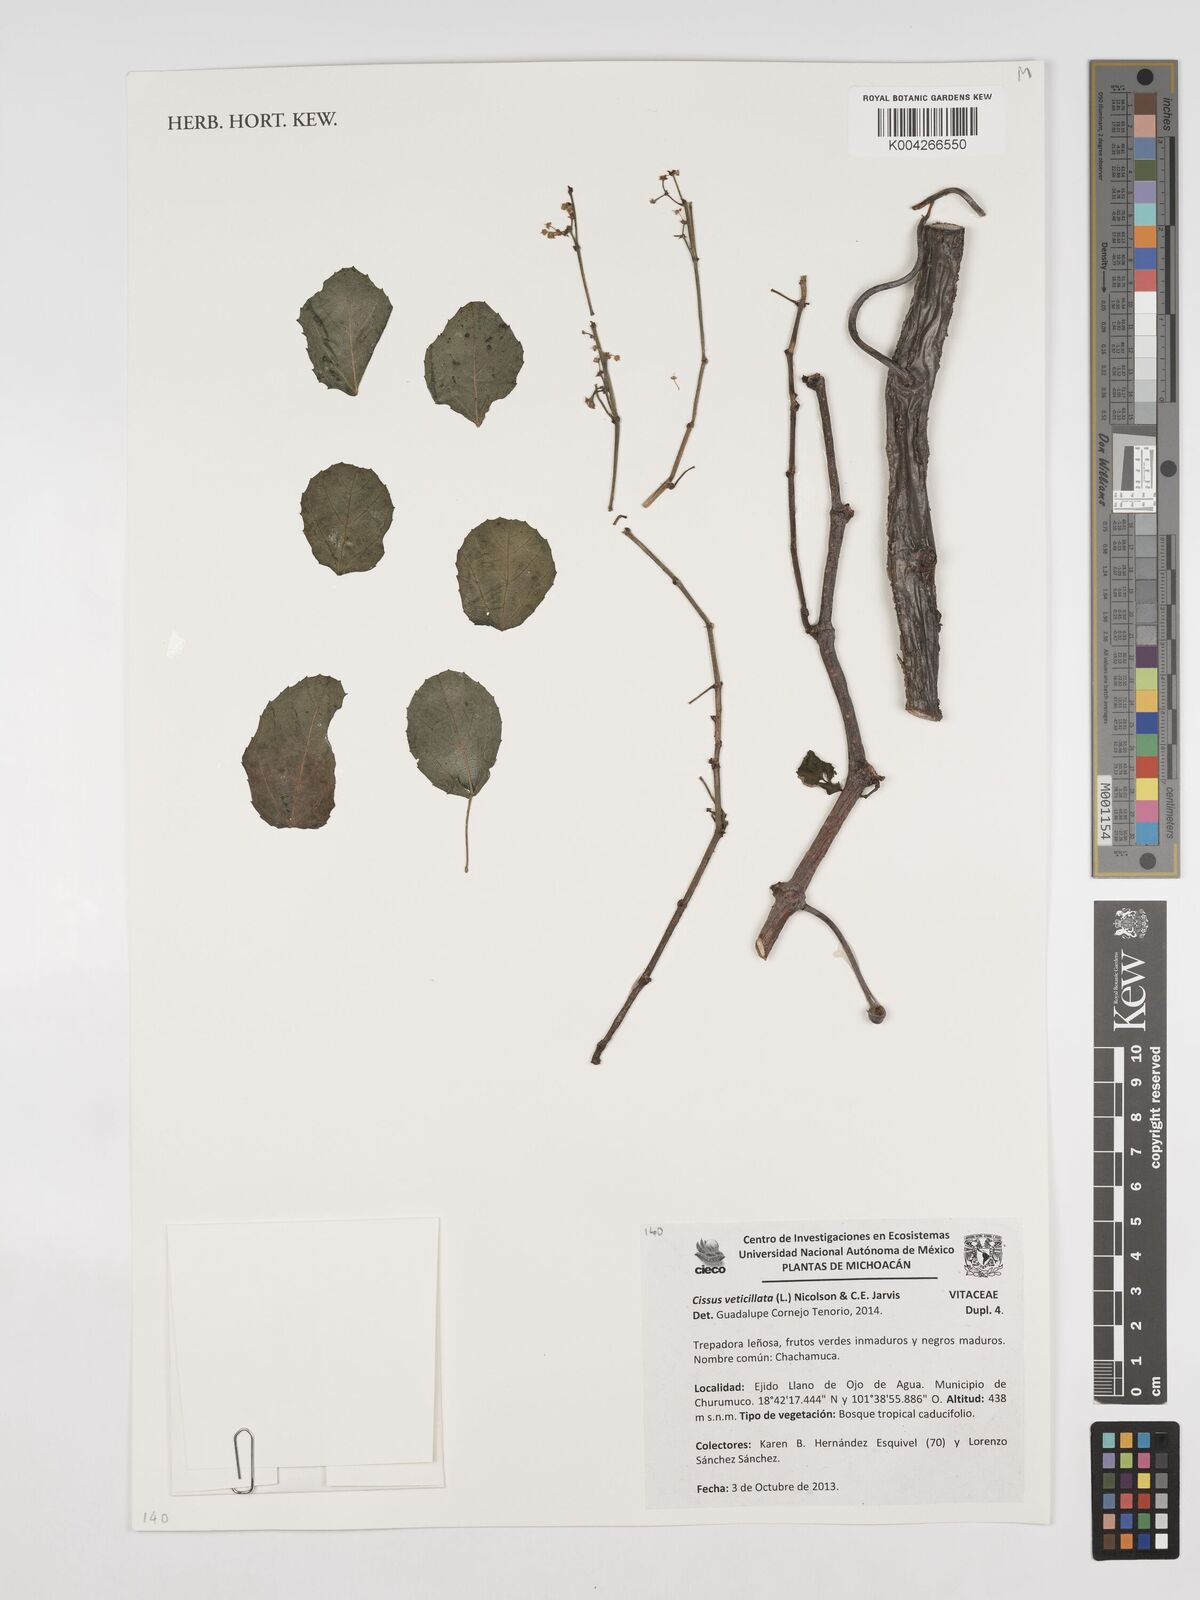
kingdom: Plantae
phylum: Tracheophyta
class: Magnoliopsida
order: Vitales
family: Vitaceae
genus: Cissus
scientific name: Cissus verticillata
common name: Princess vine
